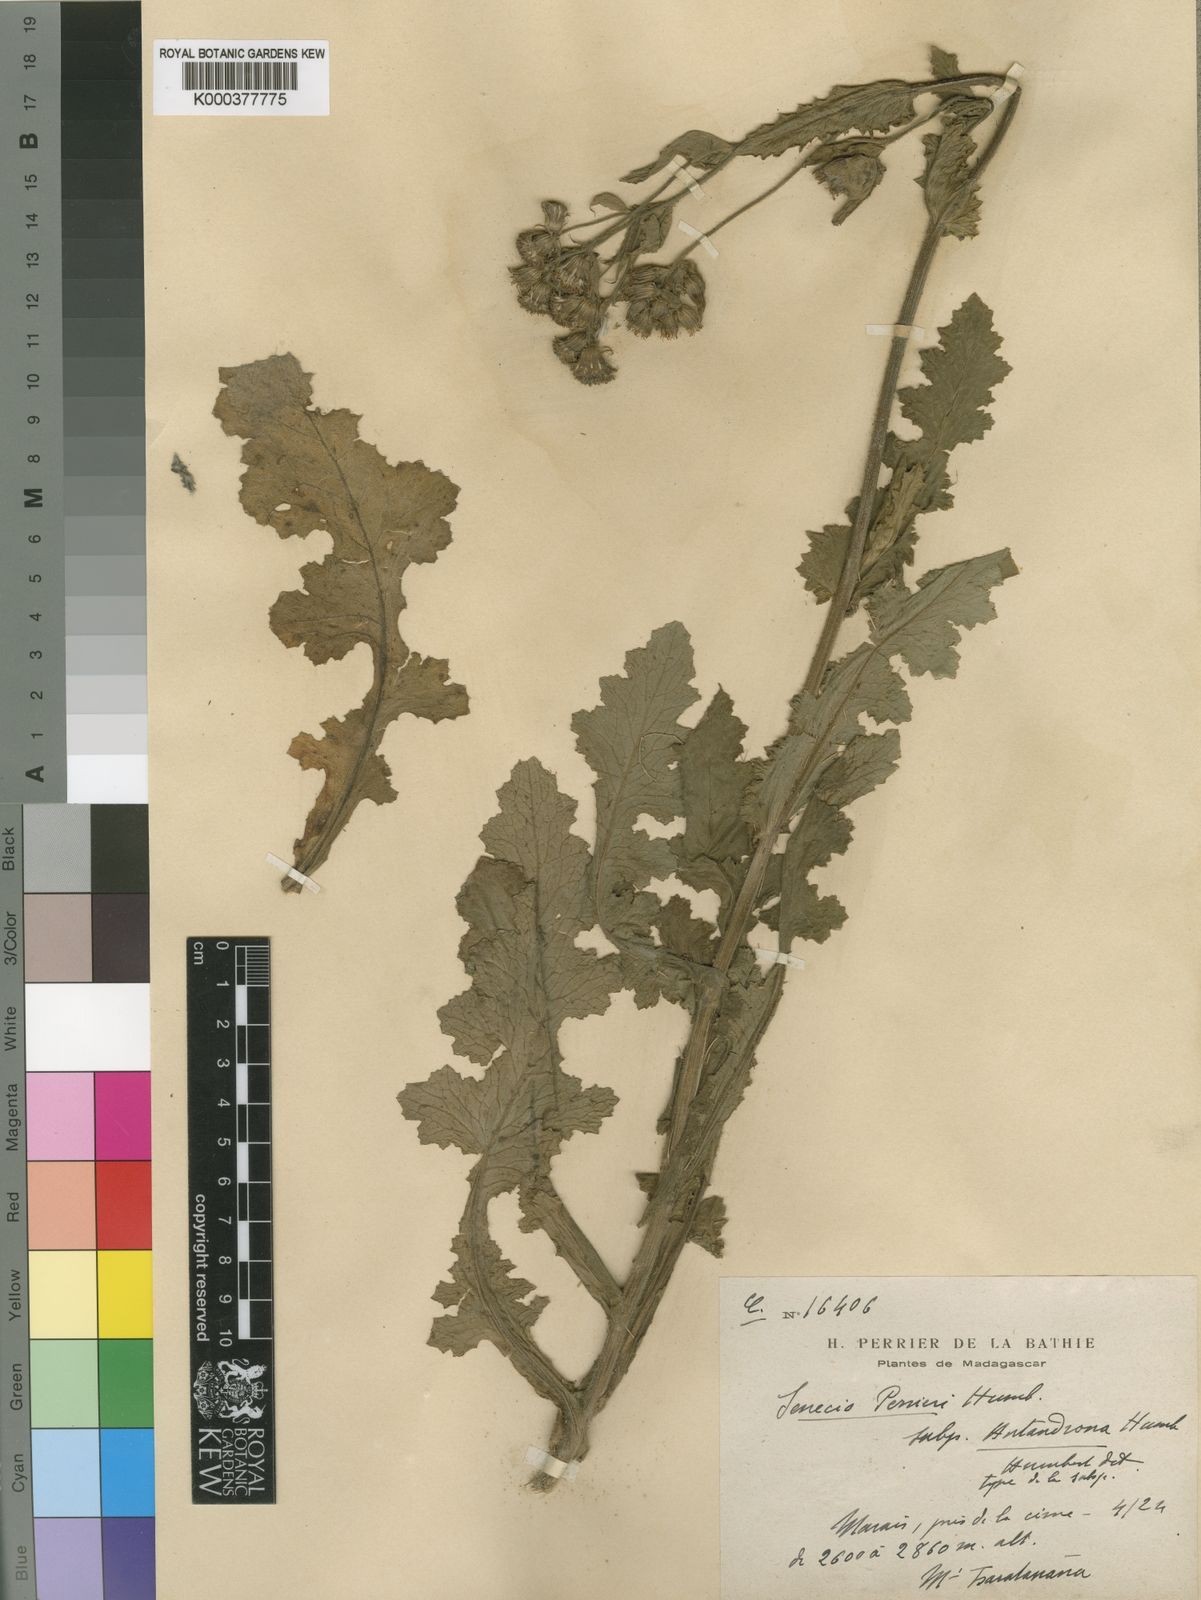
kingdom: Plantae
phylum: Tracheophyta
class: Magnoliopsida
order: Asterales
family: Asteraceae
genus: Senecio
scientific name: Senecio perrieri
